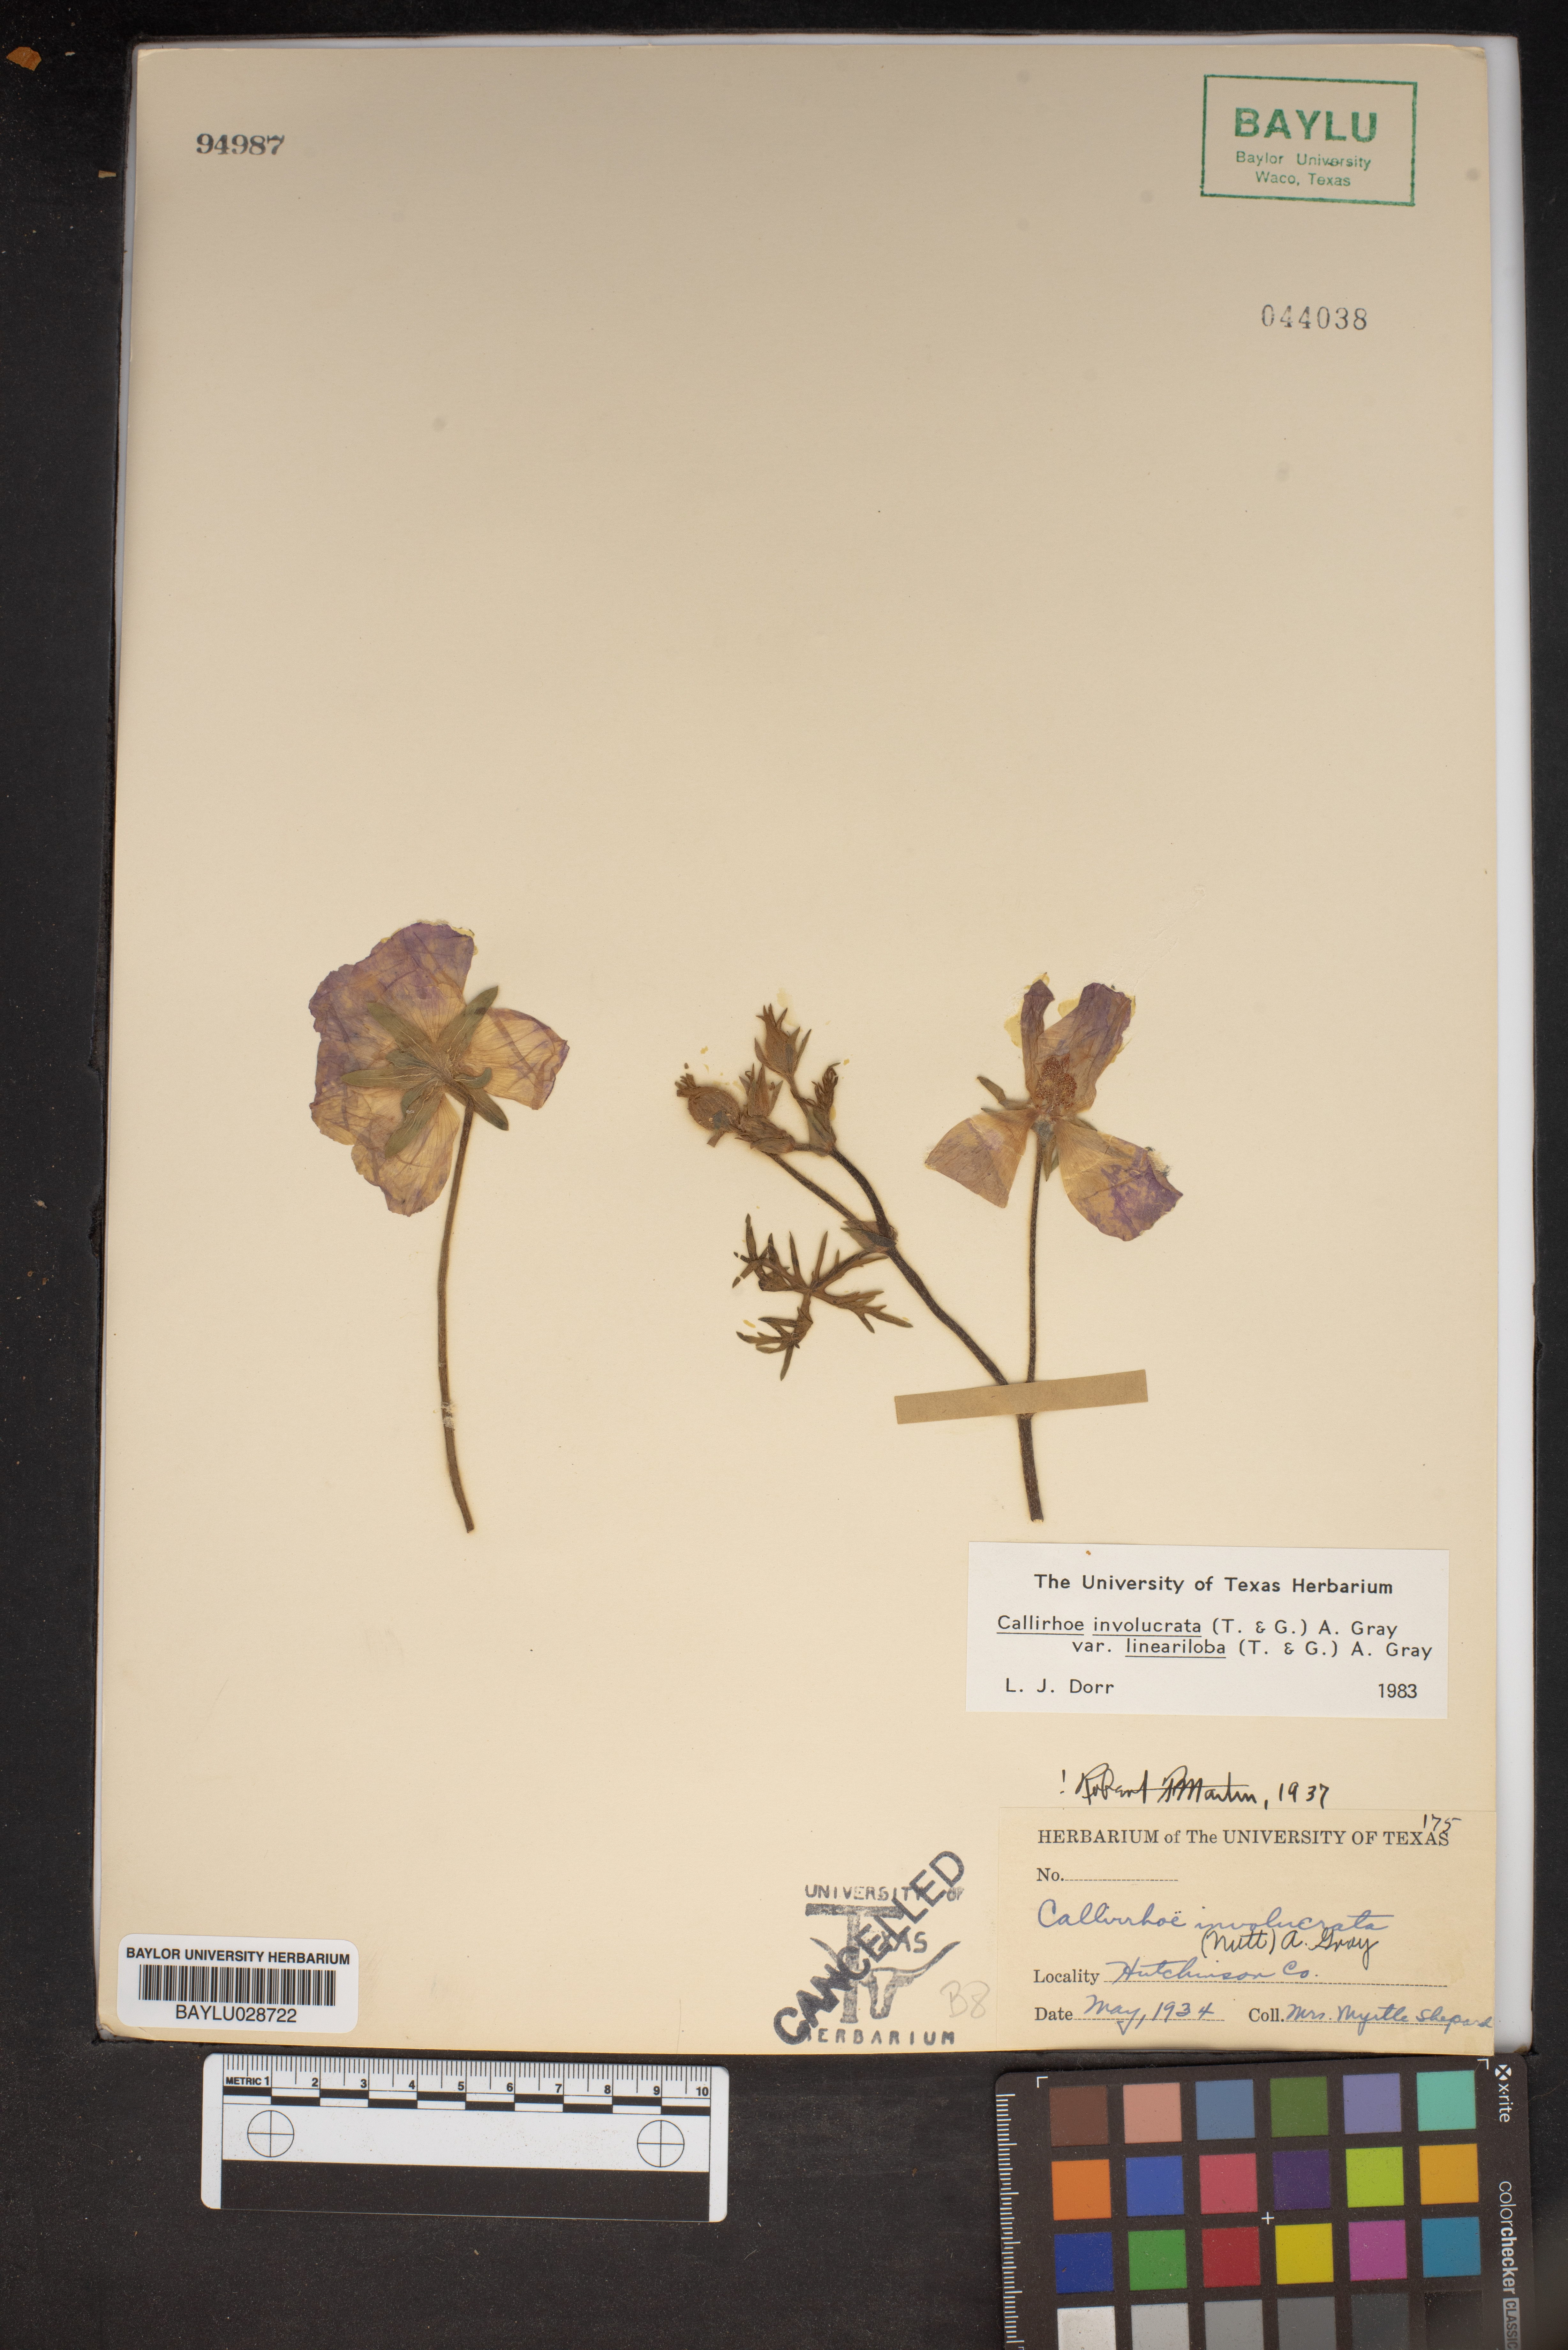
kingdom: Plantae
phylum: Tracheophyta
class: Magnoliopsida
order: Malvales
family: Malvaceae
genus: Callirhoe
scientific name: Callirhoe involucrata
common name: Purple poppy-mallow
